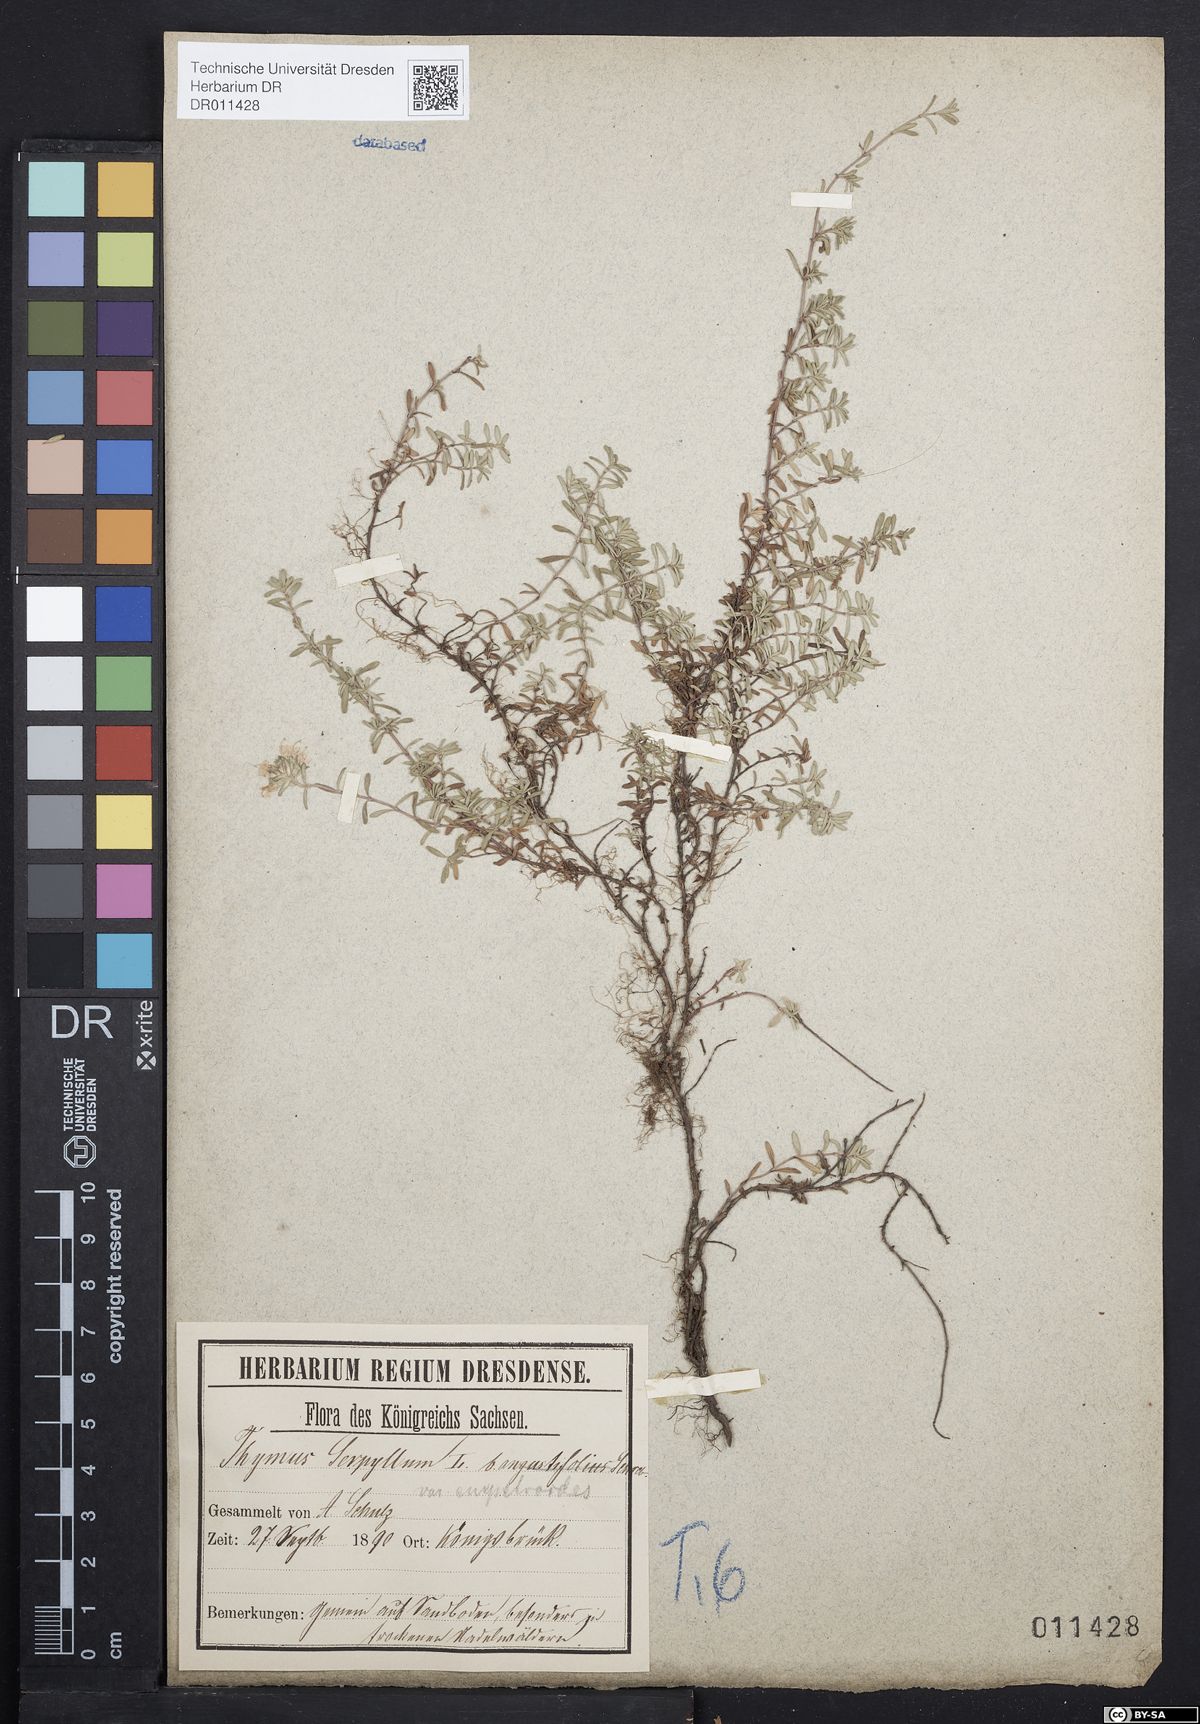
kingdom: Plantae
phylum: Tracheophyta
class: Magnoliopsida
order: Lamiales
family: Lamiaceae
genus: Thymus
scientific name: Thymus serpyllum
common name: Breckland thyme
